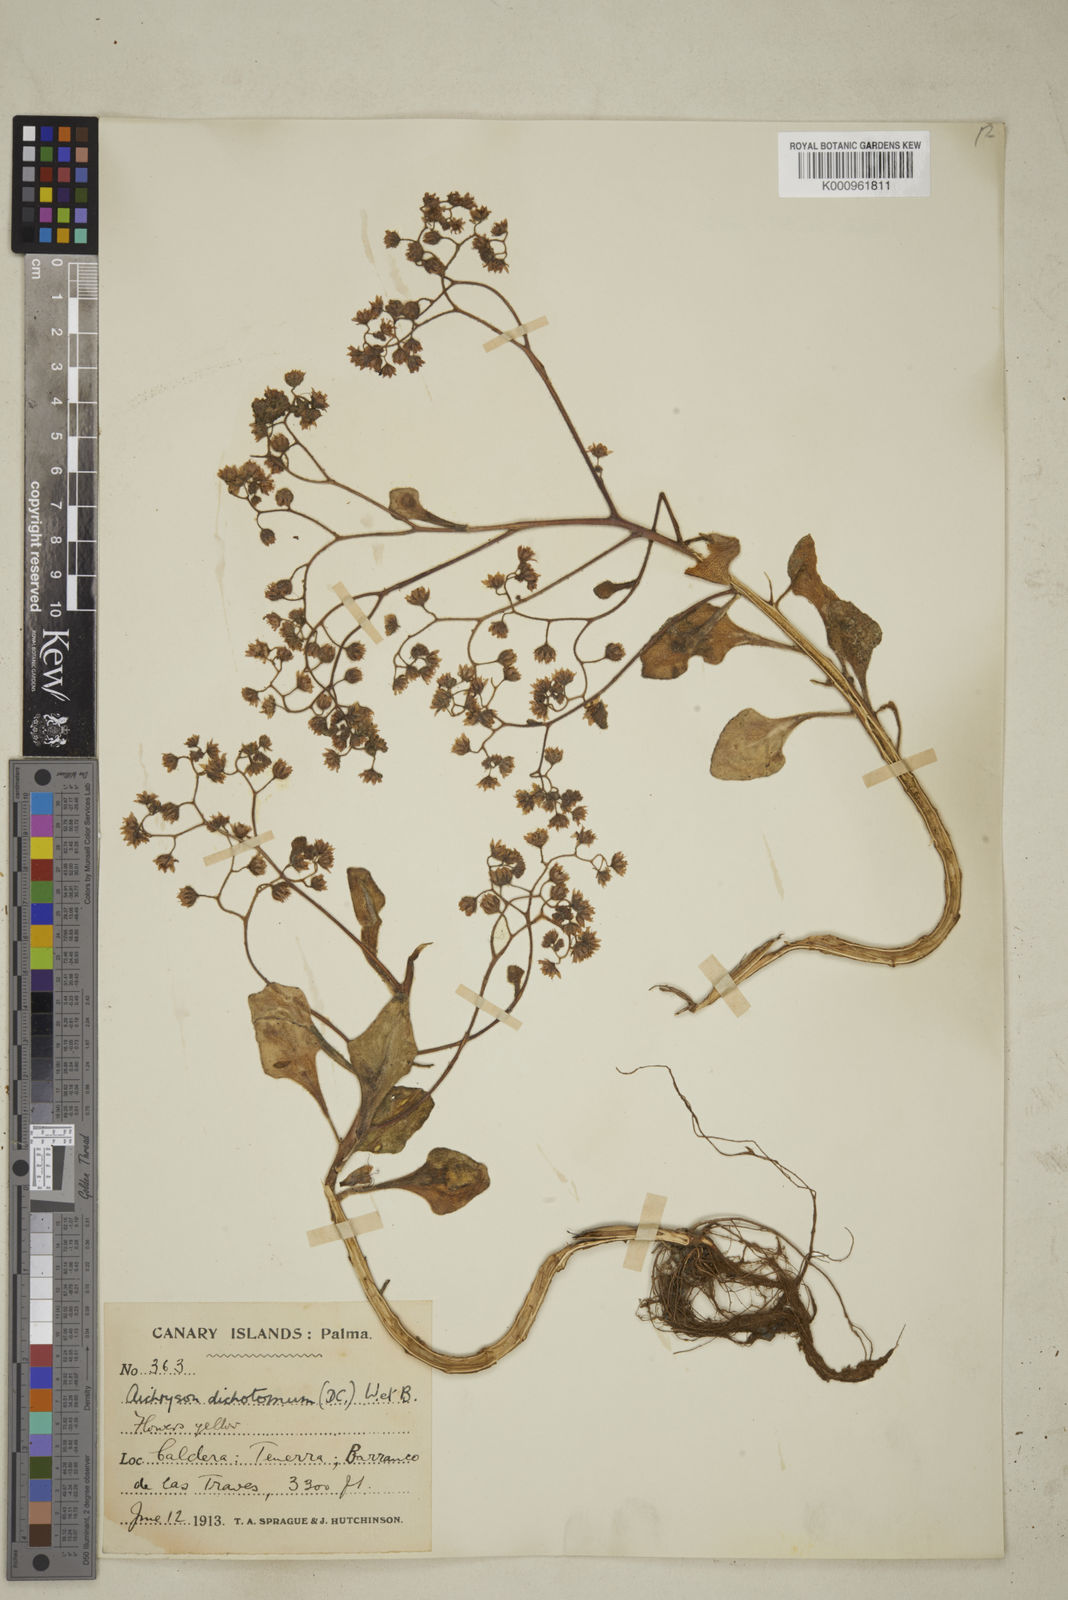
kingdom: Plantae
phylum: Tracheophyta
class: Magnoliopsida
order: Saxifragales
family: Crassulaceae
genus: Aichryson
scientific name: Aichryson laxum
